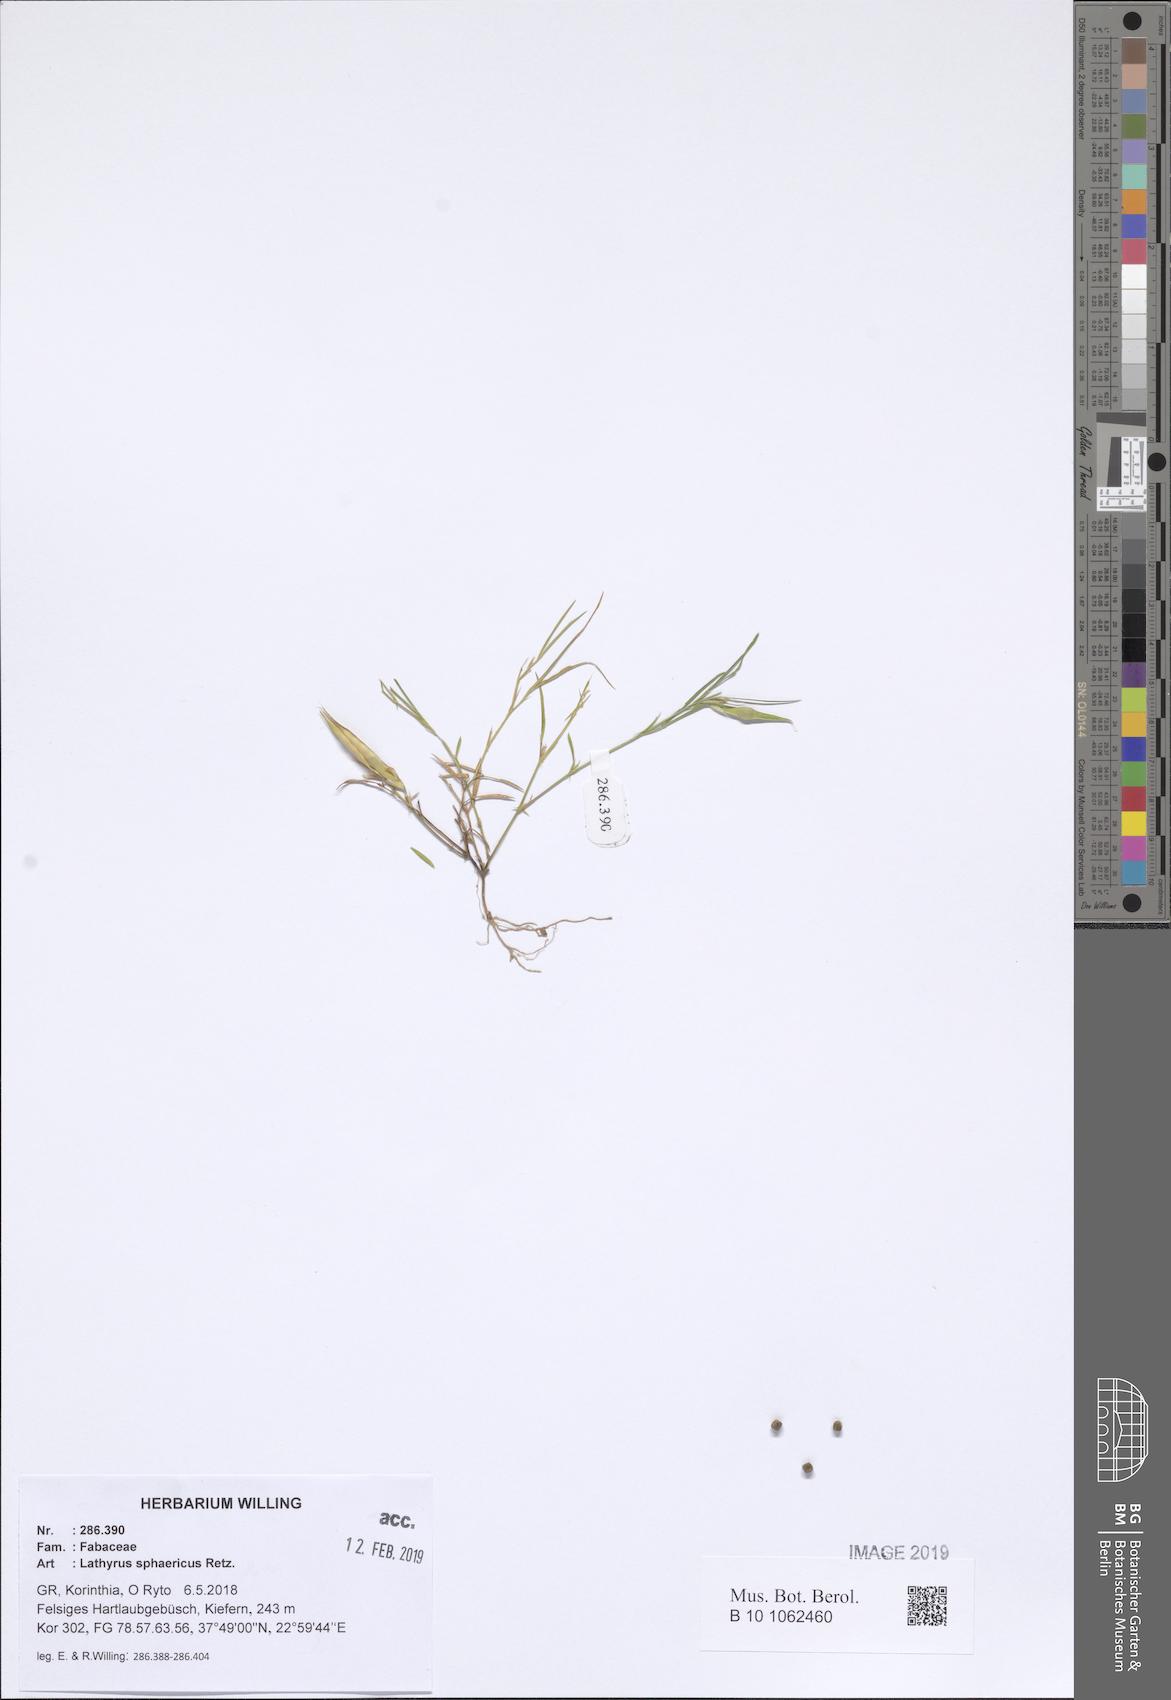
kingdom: Plantae
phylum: Tracheophyta
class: Magnoliopsida
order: Fabales
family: Fabaceae
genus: Lathyrus
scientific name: Lathyrus sphaericus
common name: Grass pea
